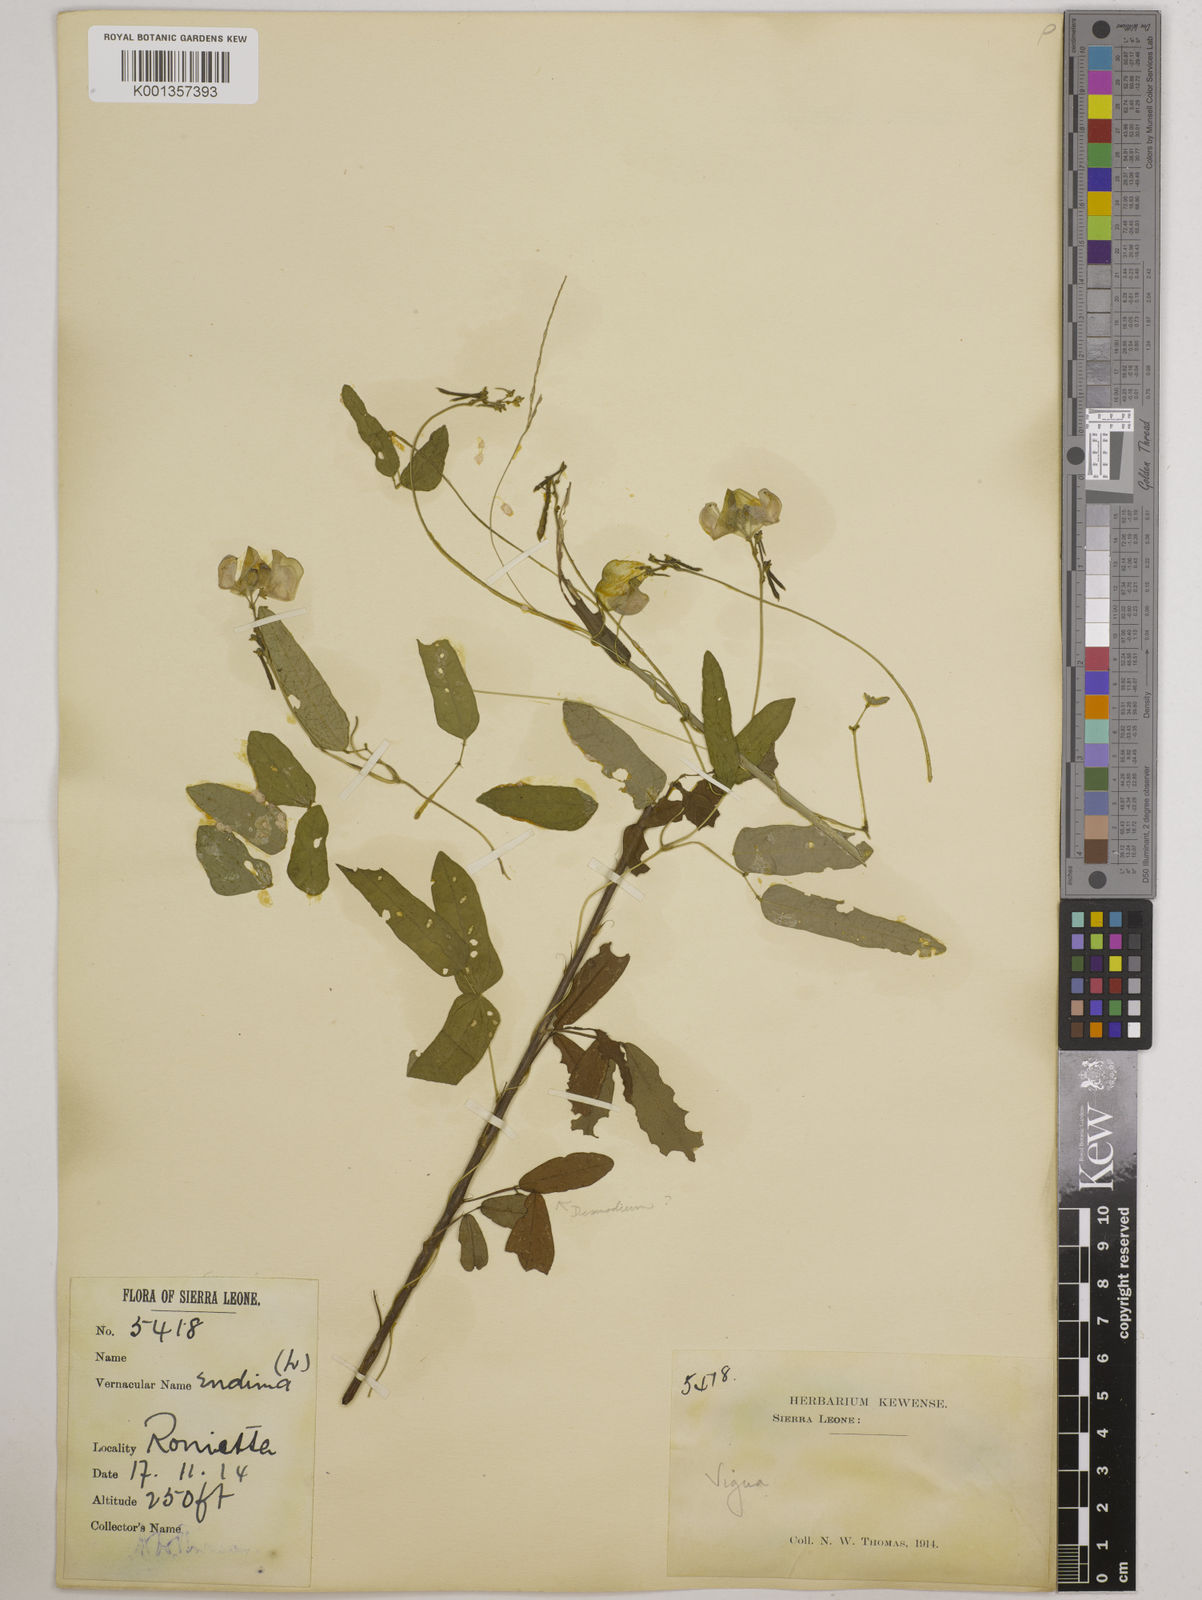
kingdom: Plantae
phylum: Tracheophyta
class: Magnoliopsida
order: Fabales
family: Fabaceae
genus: Vigna
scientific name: Vigna gracilis
